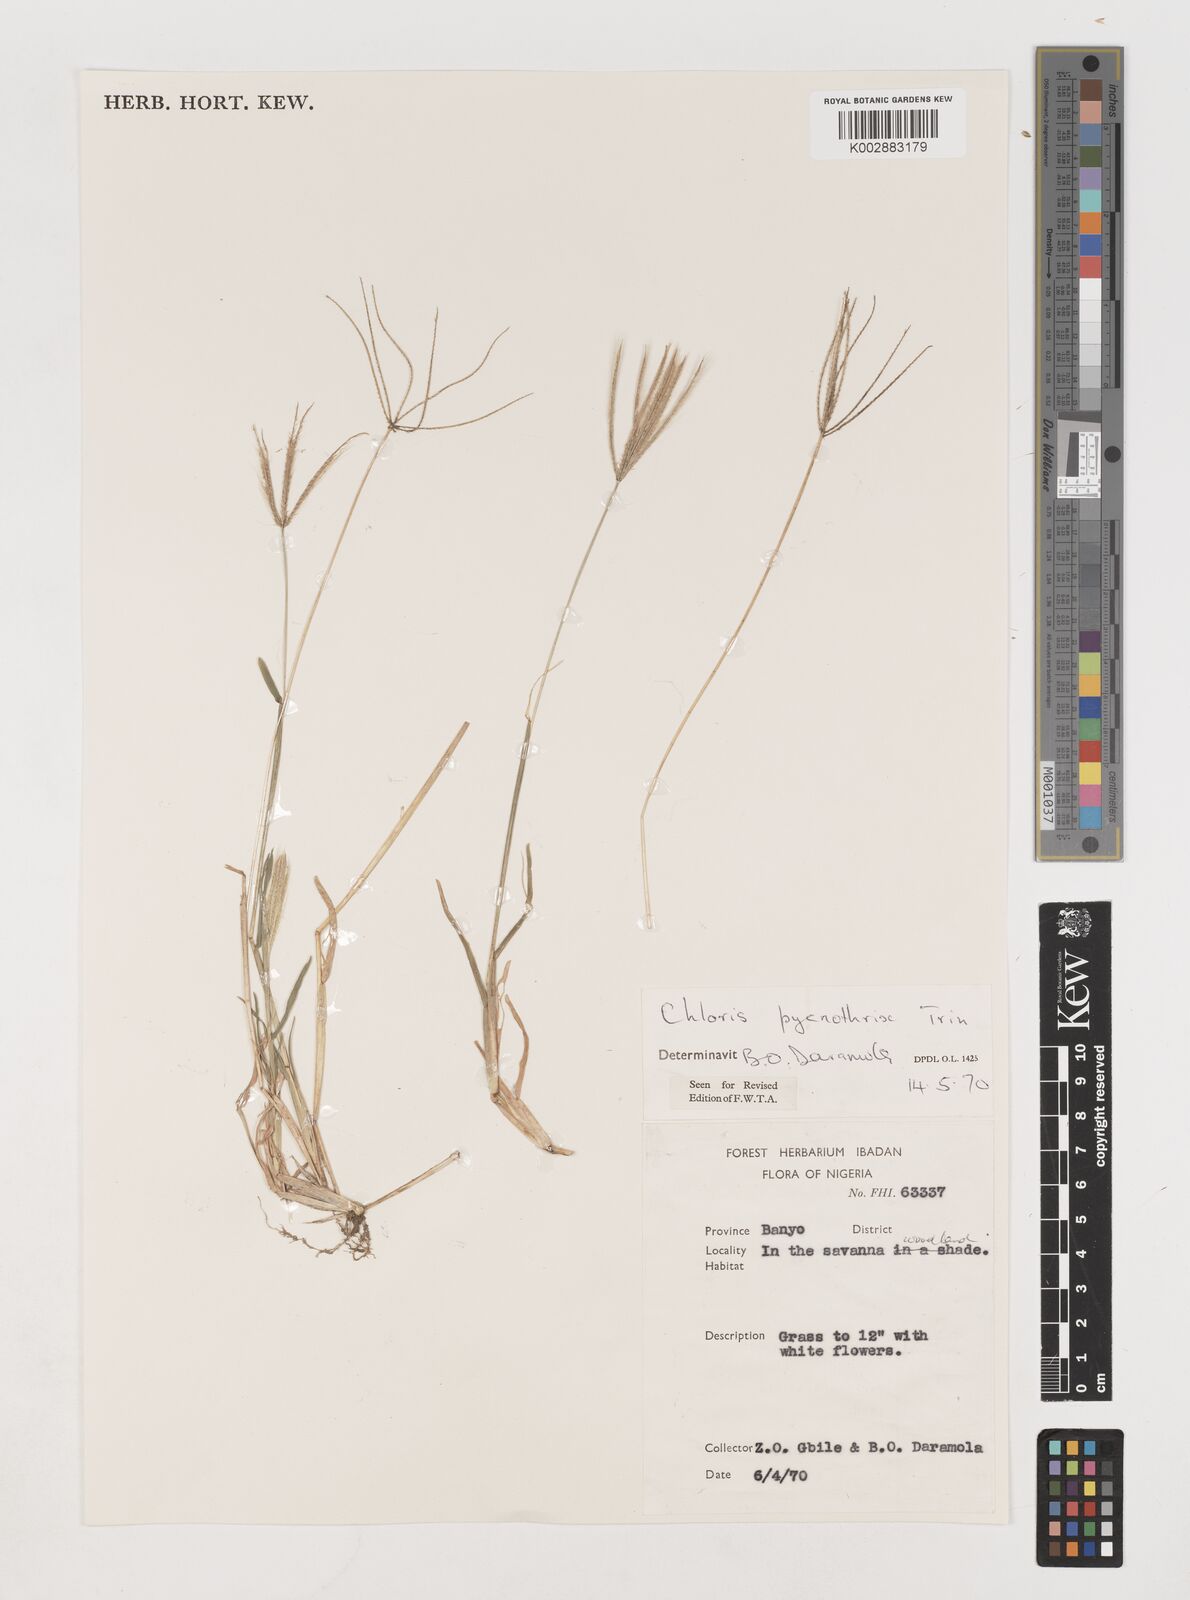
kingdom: Plantae
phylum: Tracheophyta
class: Liliopsida
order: Poales
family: Poaceae
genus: Chloris
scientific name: Chloris pycnothrix
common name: Spiderweb chloris
